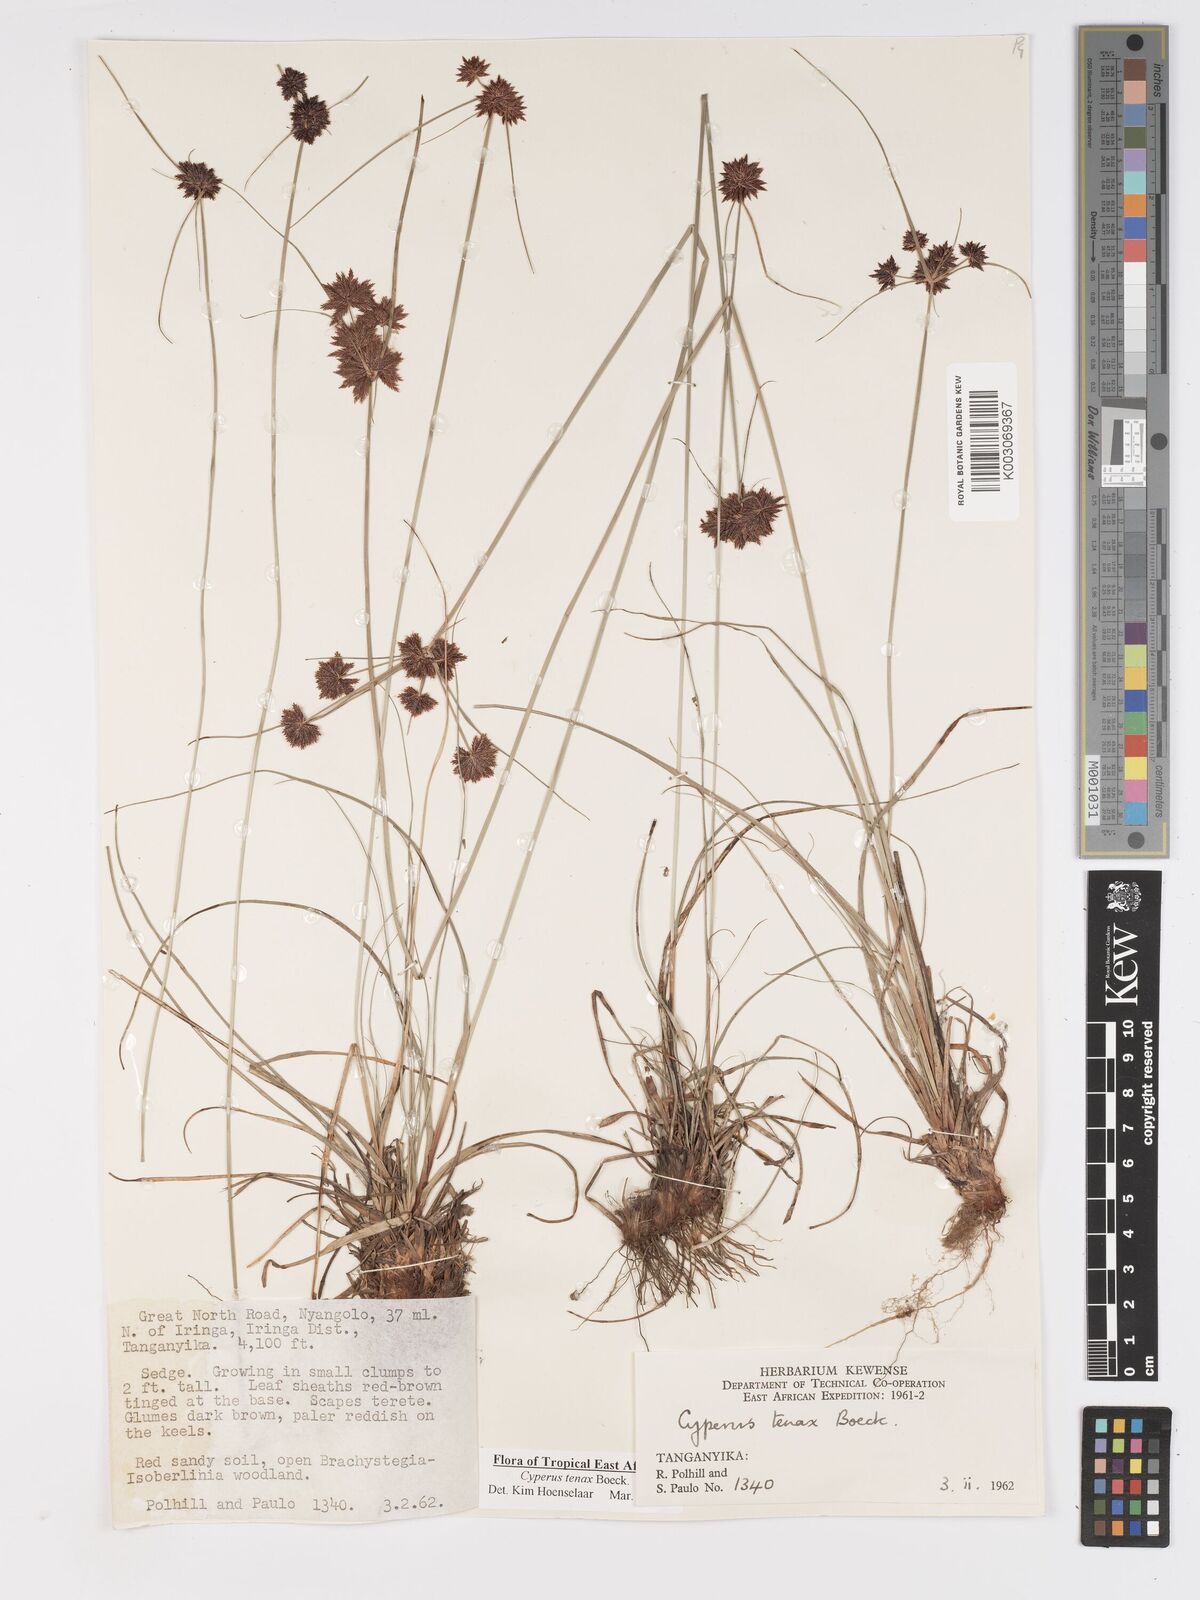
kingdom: Plantae
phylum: Tracheophyta
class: Liliopsida
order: Poales
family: Cyperaceae
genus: Cyperus
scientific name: Cyperus tenax
